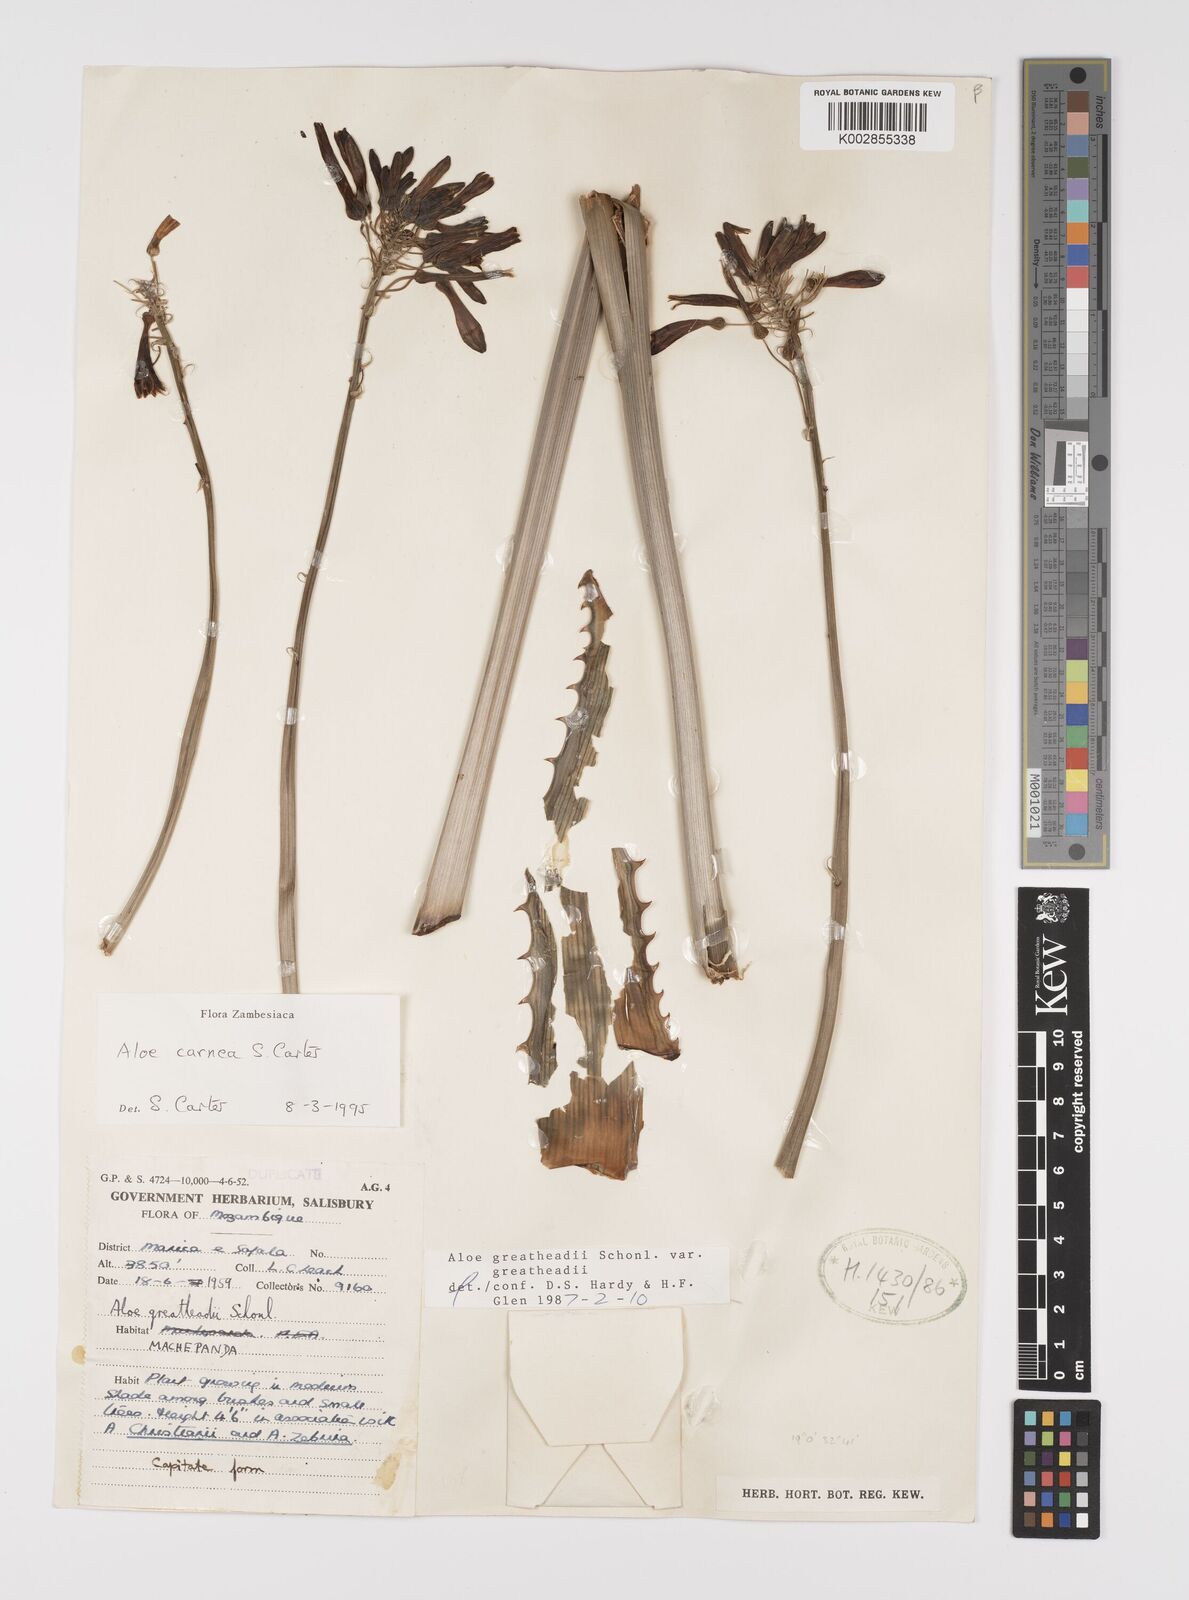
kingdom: Plantae
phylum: Tracheophyta
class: Liliopsida
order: Asparagales
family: Asphodelaceae
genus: Aloe
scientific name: Aloe carnea
